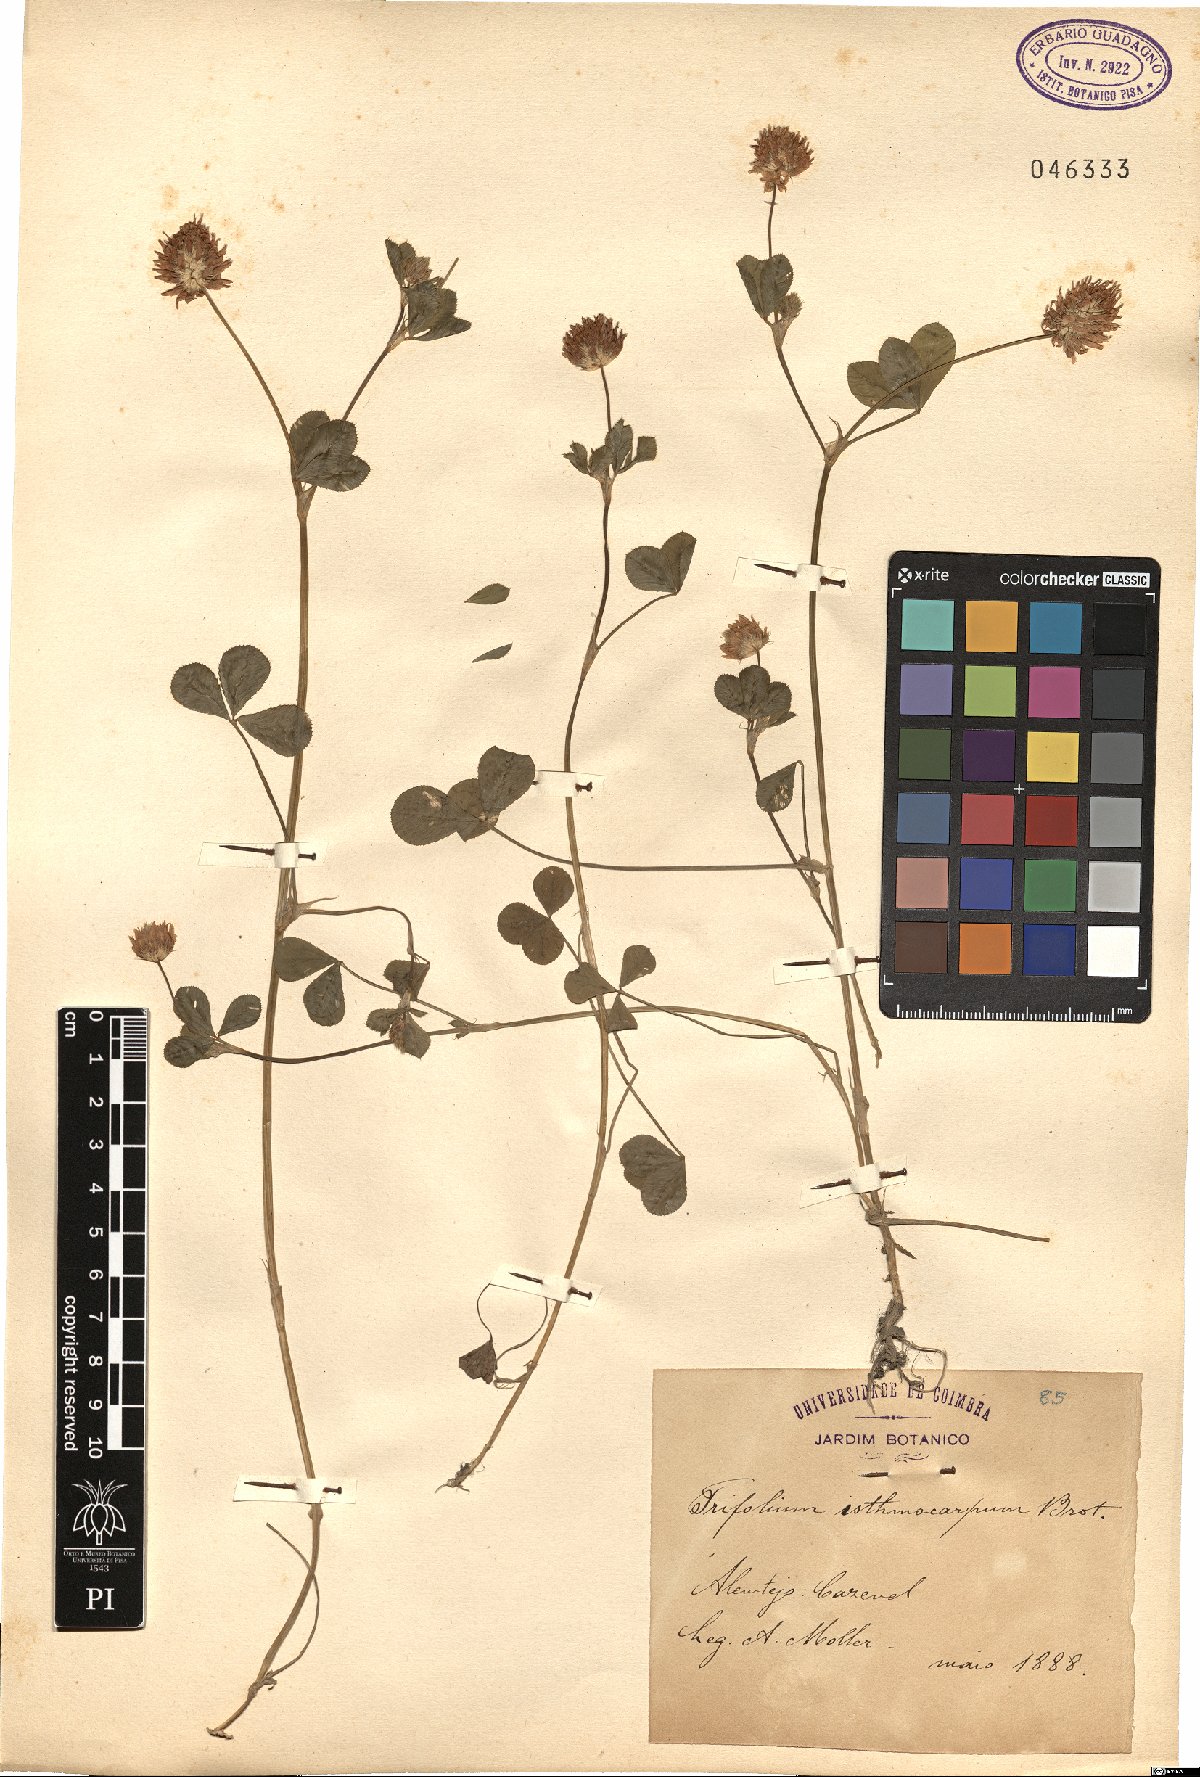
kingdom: Plantae
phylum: Tracheophyta
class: Magnoliopsida
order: Fabales
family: Fabaceae
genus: Trifolium
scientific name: Trifolium isthmocarpum
